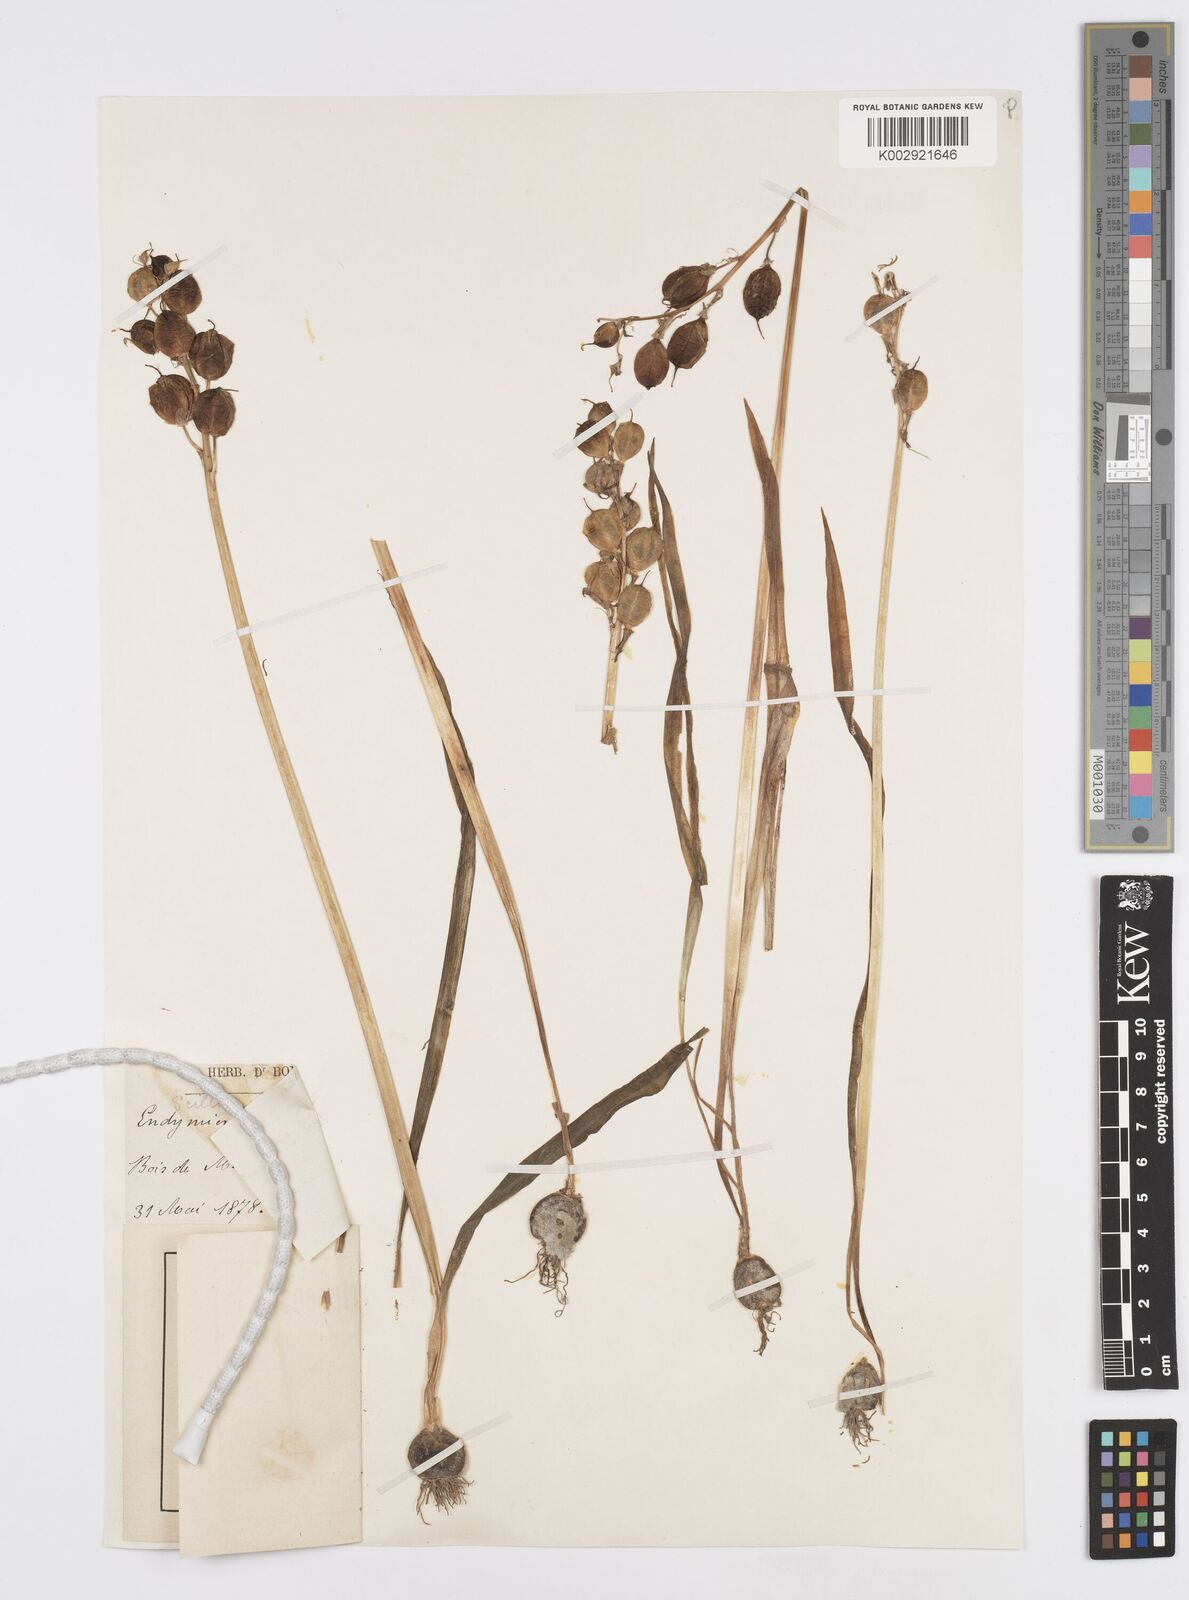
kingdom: Plantae
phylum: Tracheophyta
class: Liliopsida
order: Asparagales
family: Asparagaceae
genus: Hyacinthoides
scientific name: Hyacinthoides non-scripta
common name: Bluebell
